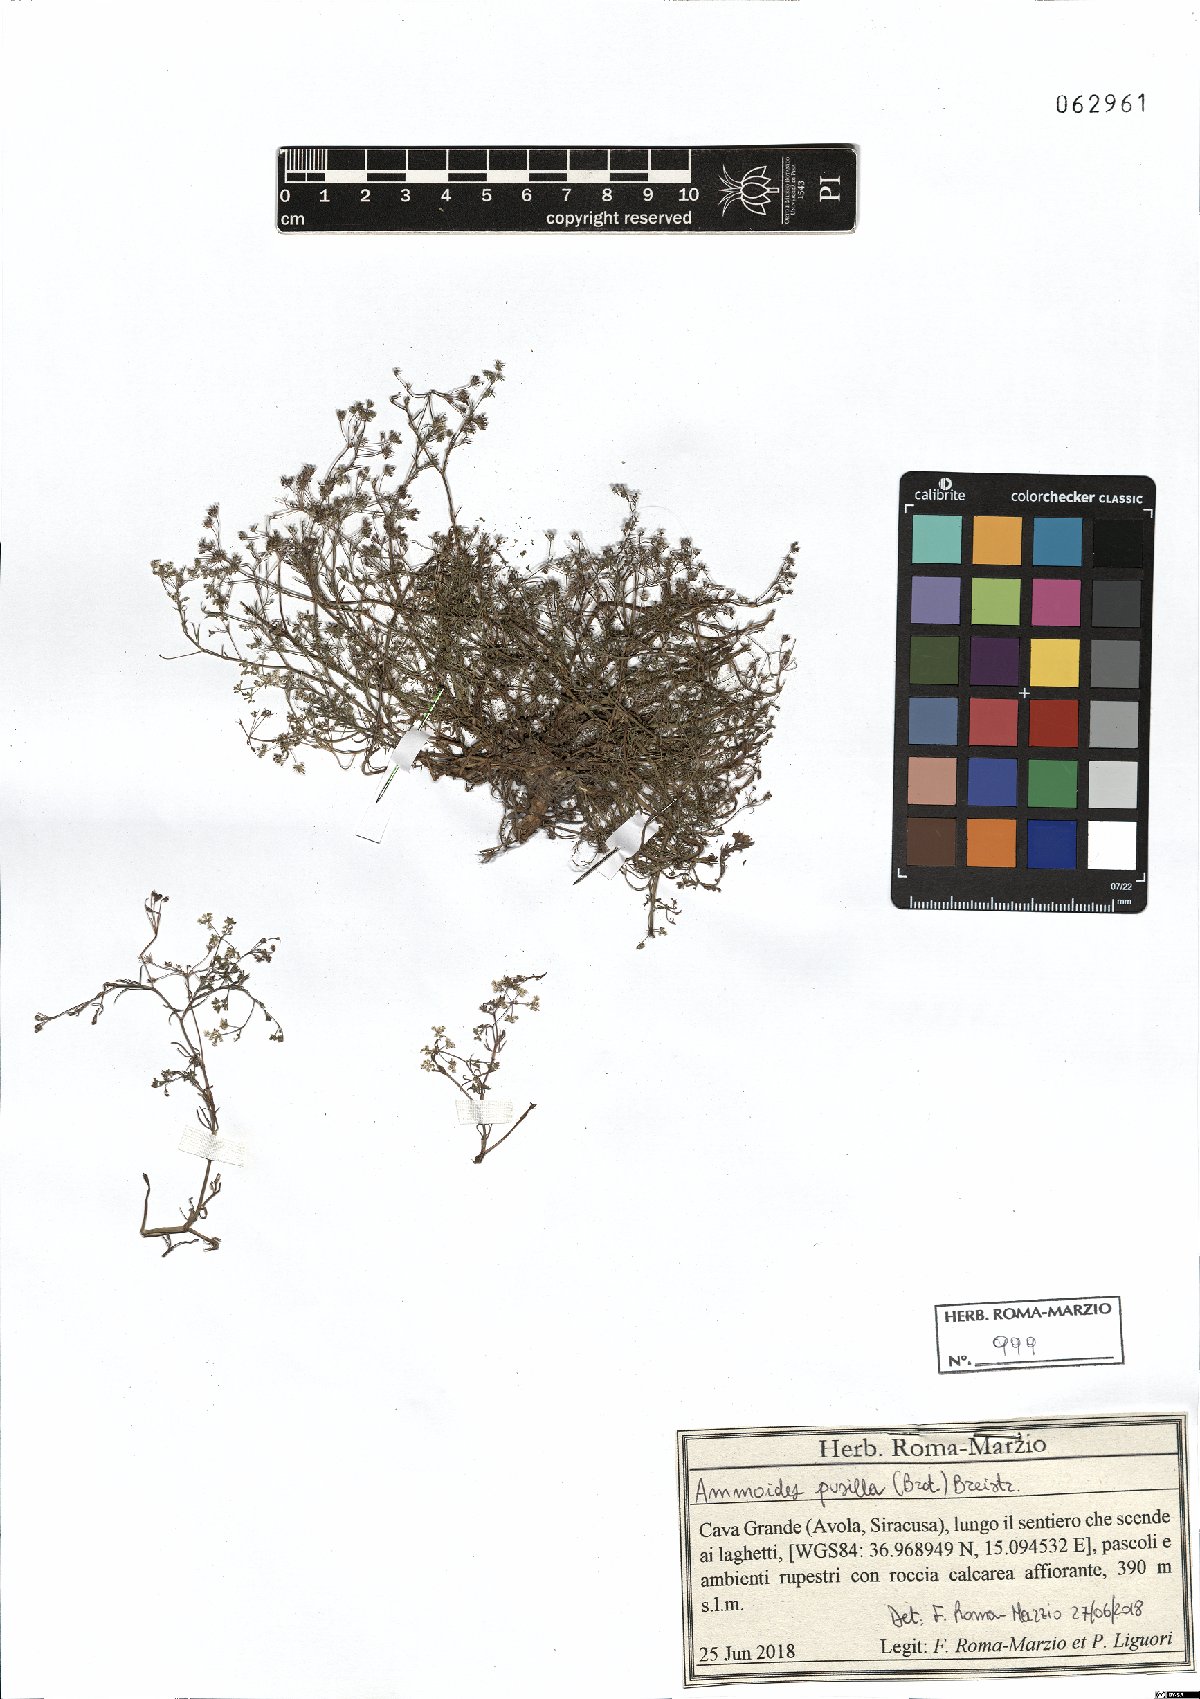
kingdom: Plantae
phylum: Tracheophyta
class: Magnoliopsida
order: Apiales
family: Apiaceae
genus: Ammoides
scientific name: Ammoides pusilla
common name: Cerfolium
